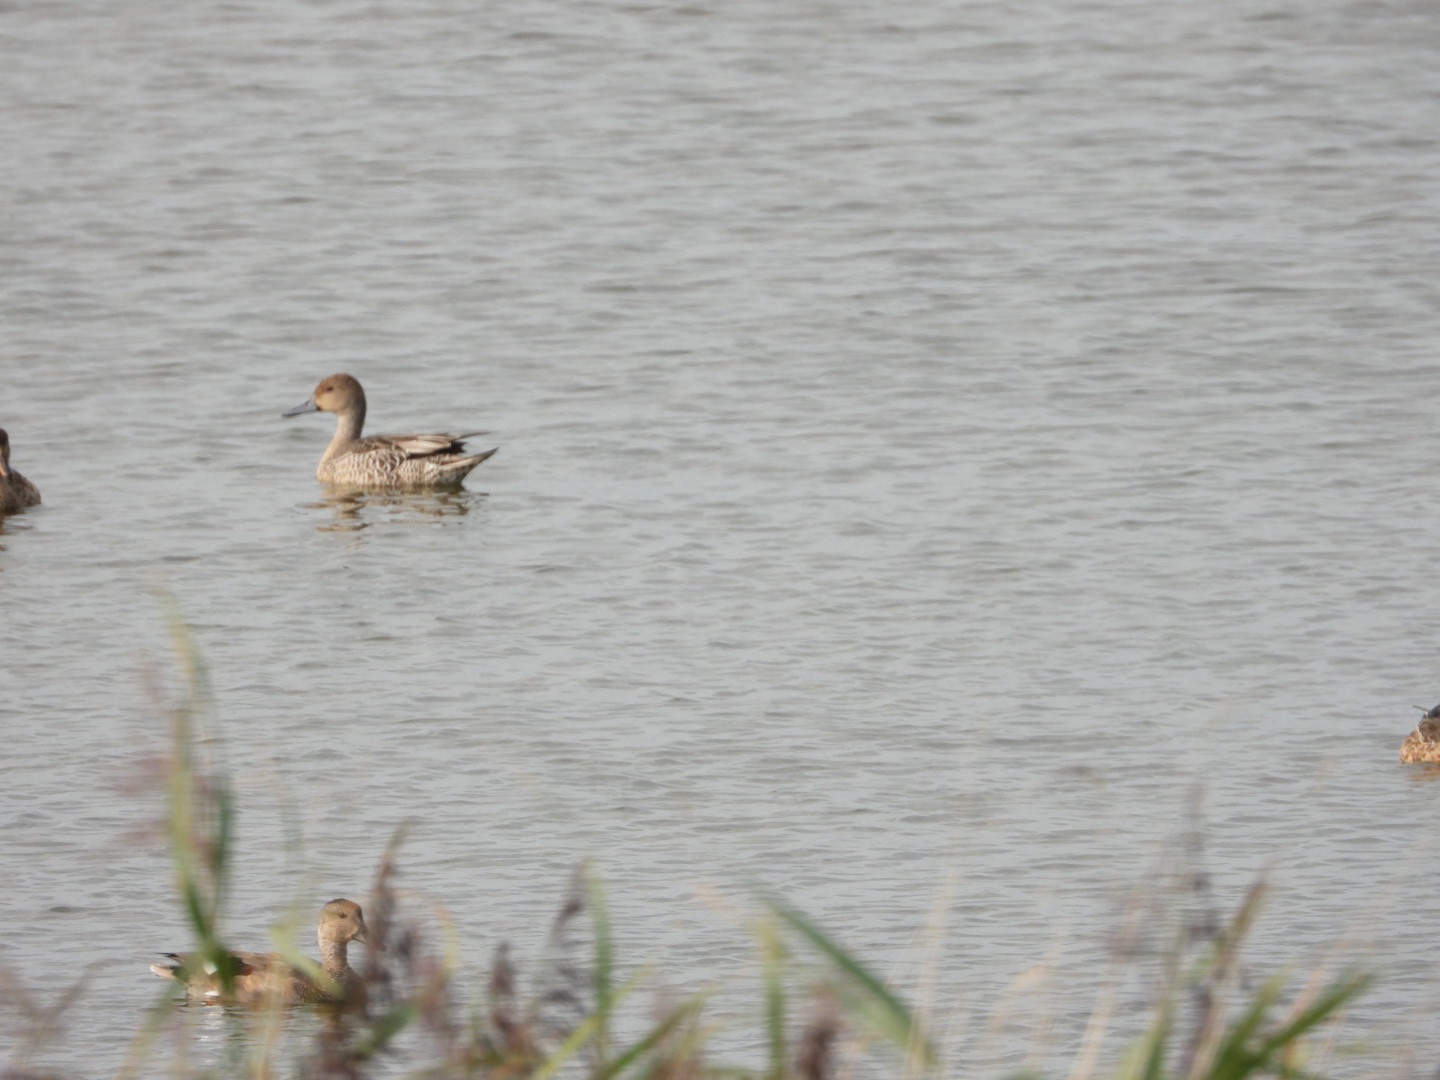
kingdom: Animalia
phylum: Chordata
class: Aves
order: Anseriformes
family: Anatidae
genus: Anas
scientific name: Anas acuta
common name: Spidsand
